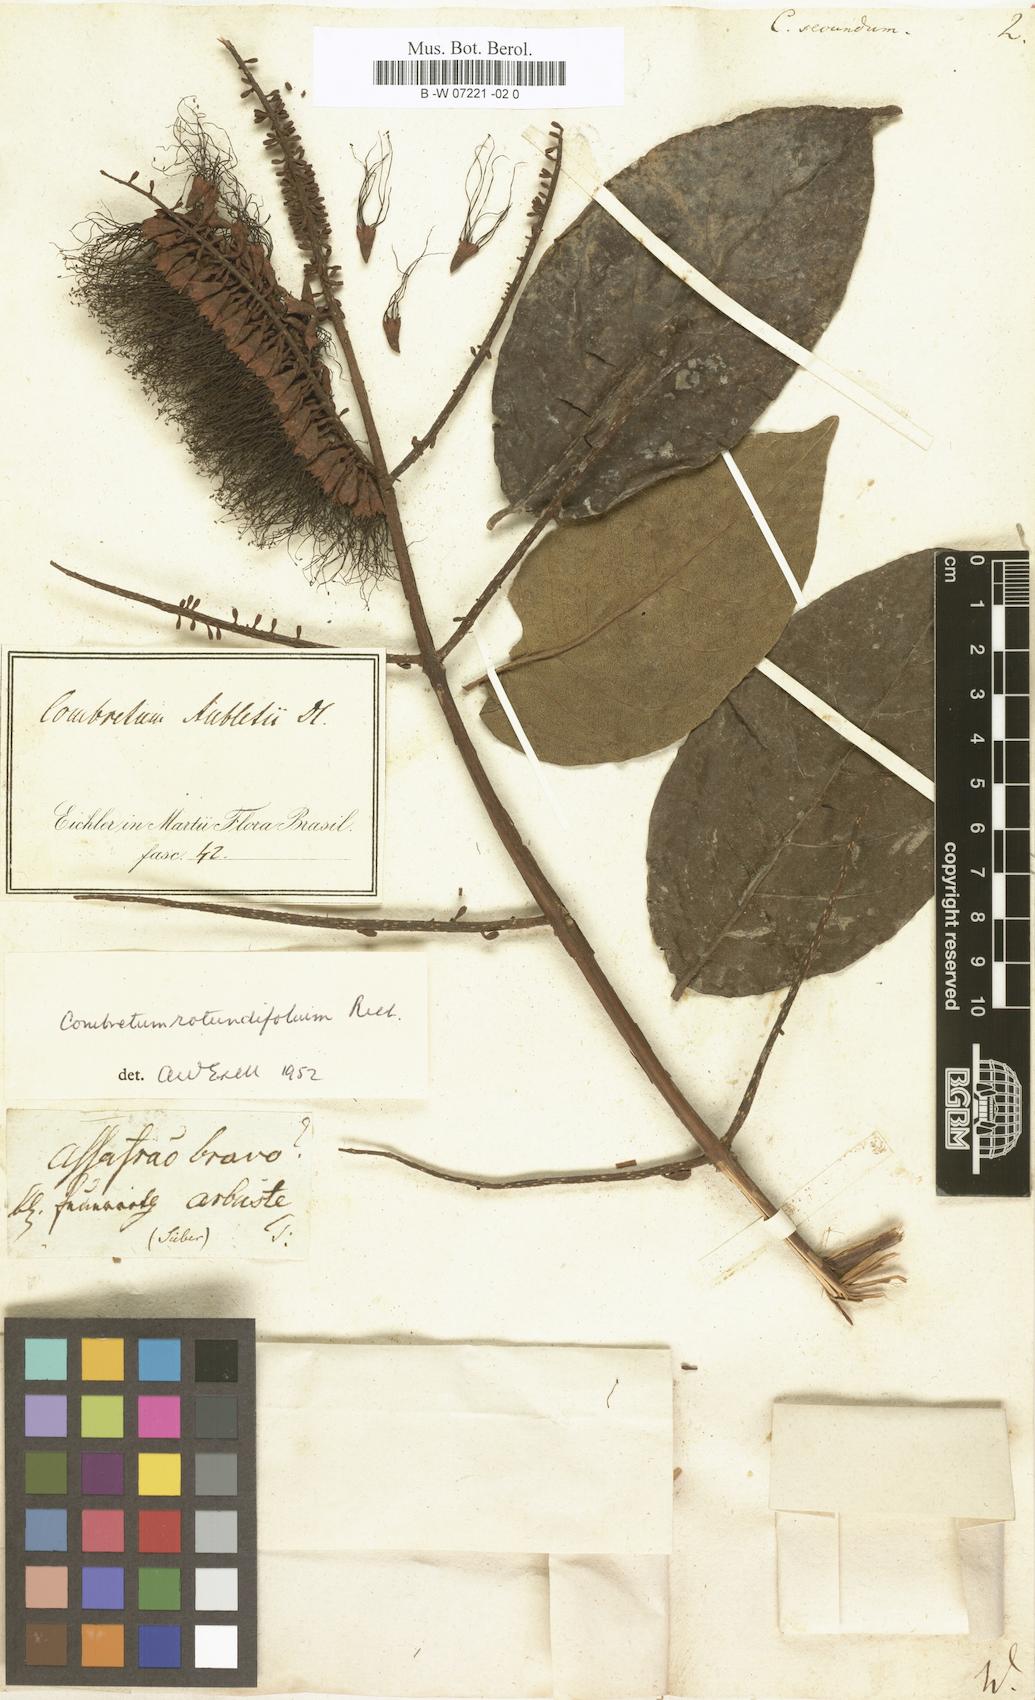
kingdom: Plantae
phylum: Tracheophyta
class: Magnoliopsida
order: Myrtales
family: Combretaceae
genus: Combretum
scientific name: Combretum
